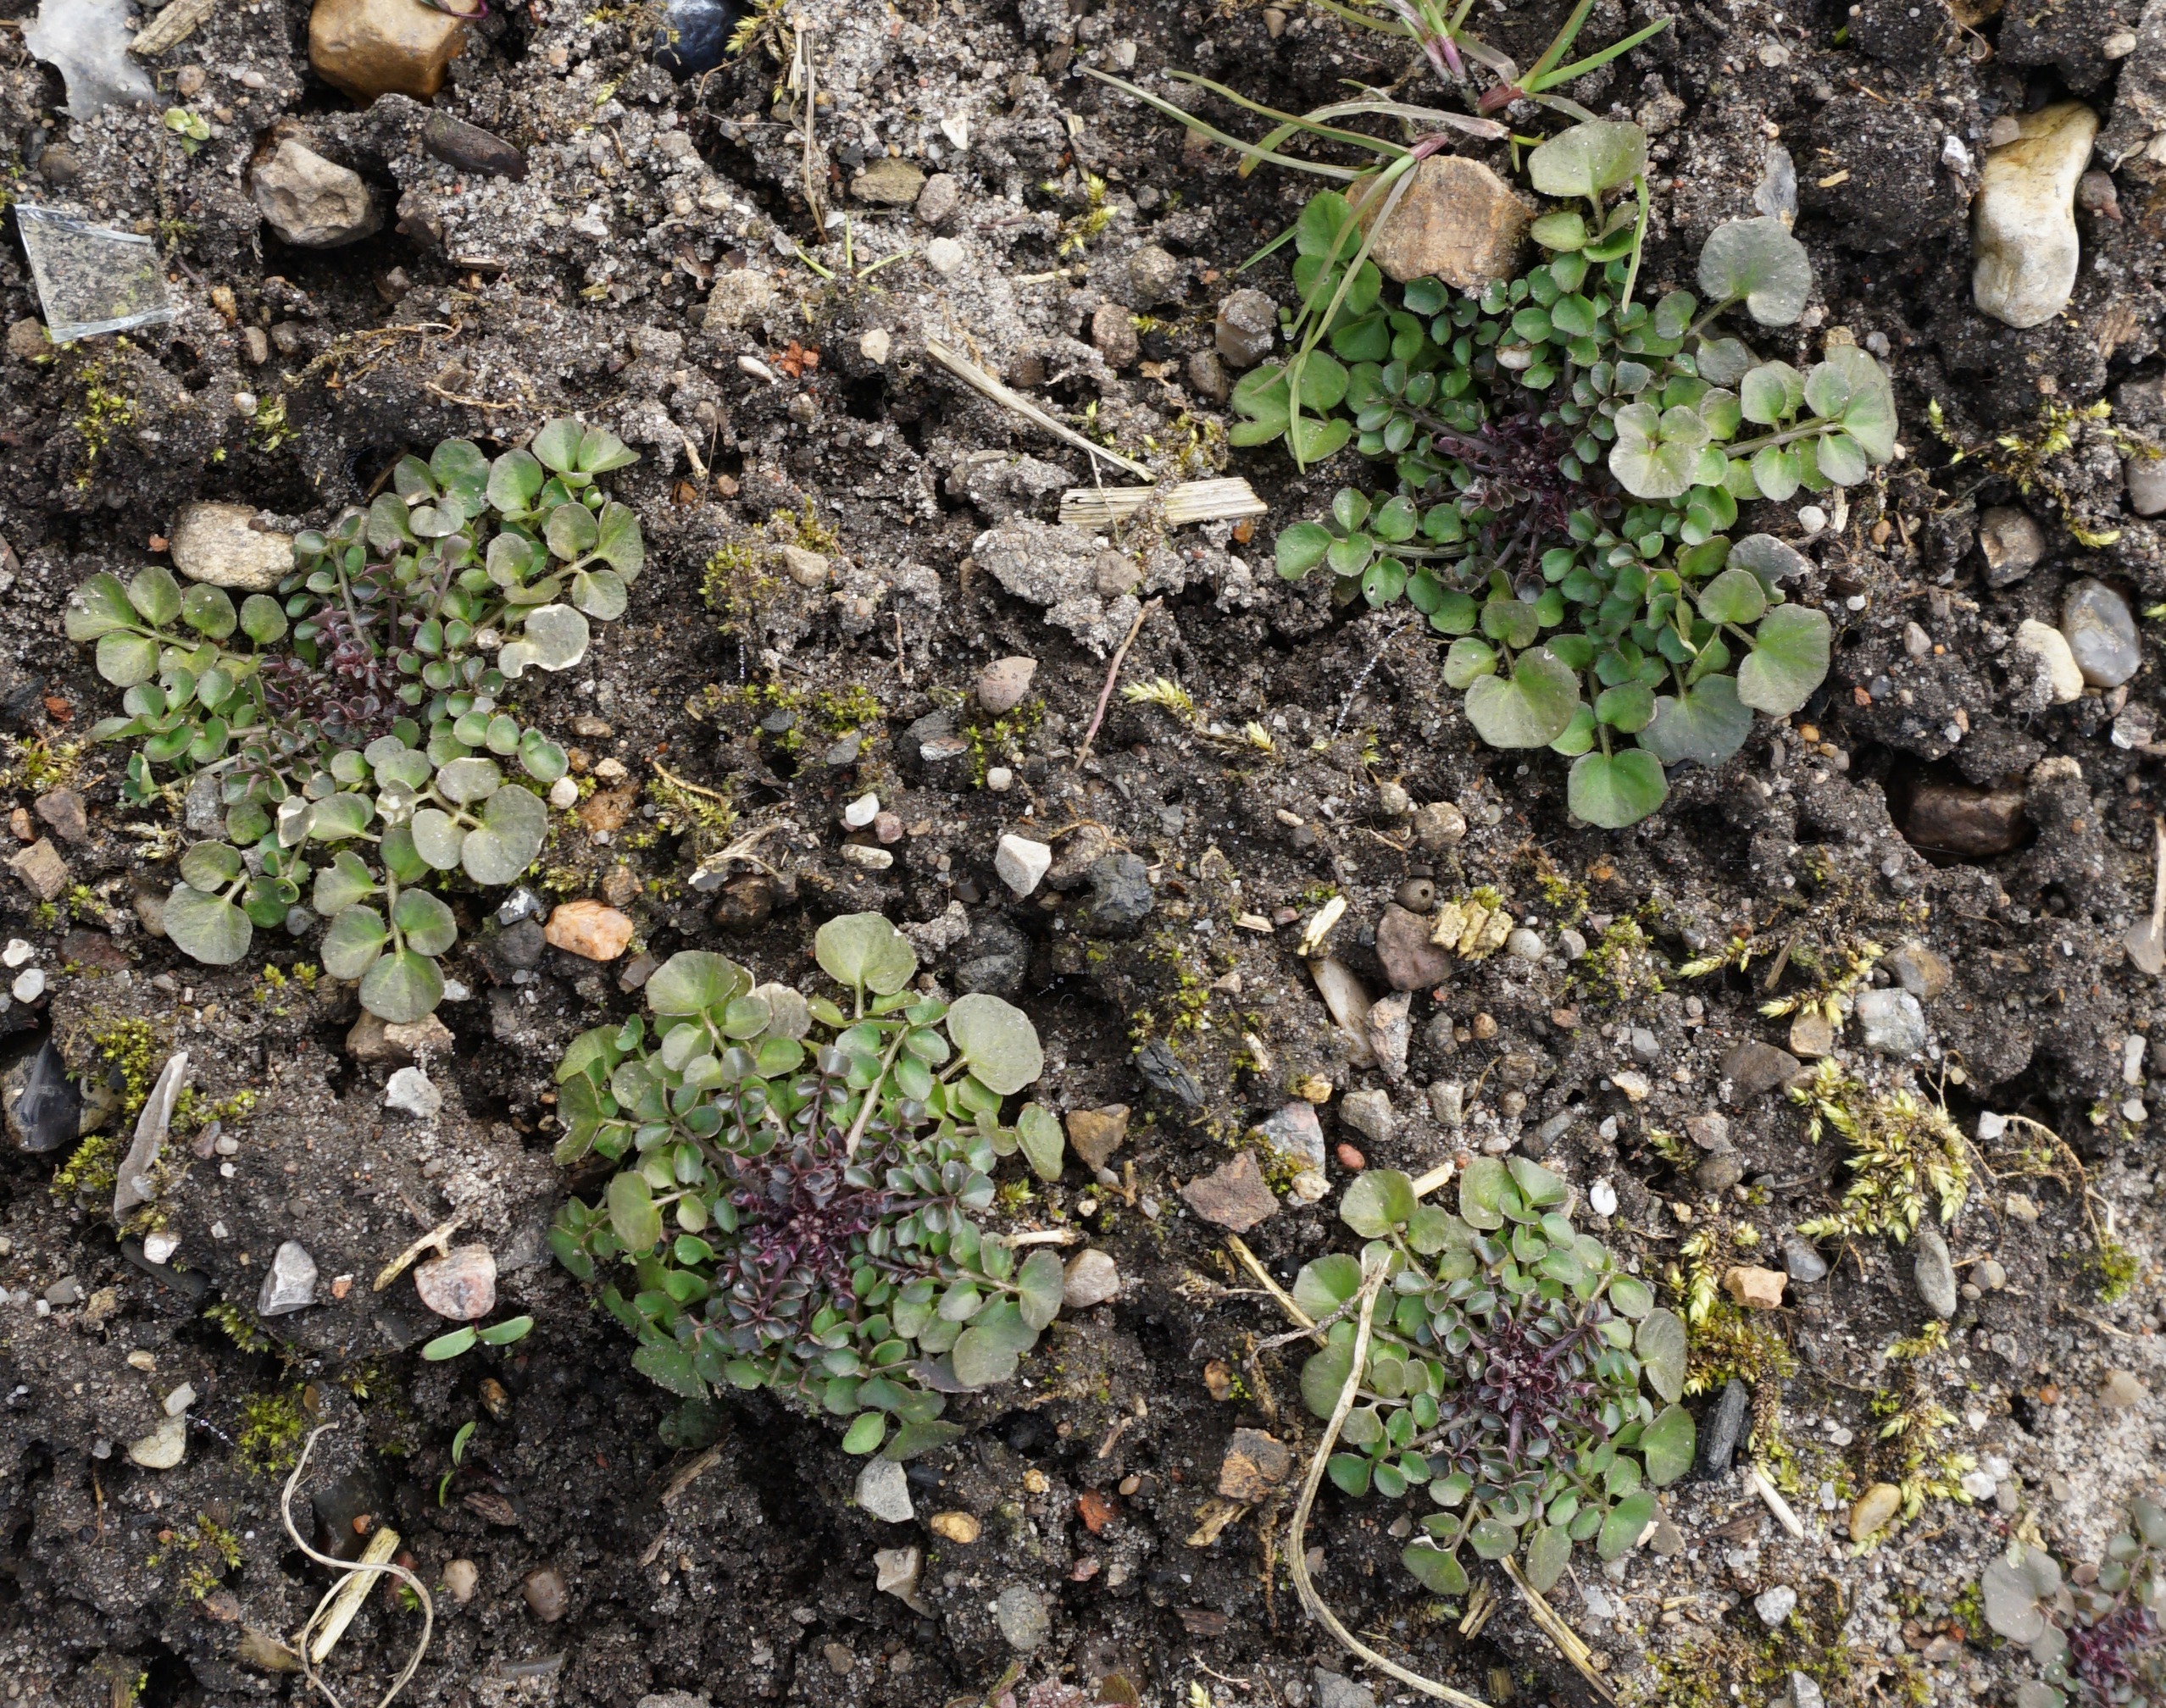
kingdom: Plantae
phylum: Tracheophyta
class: Magnoliopsida
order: Brassicales
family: Brassicaceae
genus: Cardamine
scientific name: Cardamine hirsuta
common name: Roset-springklap
